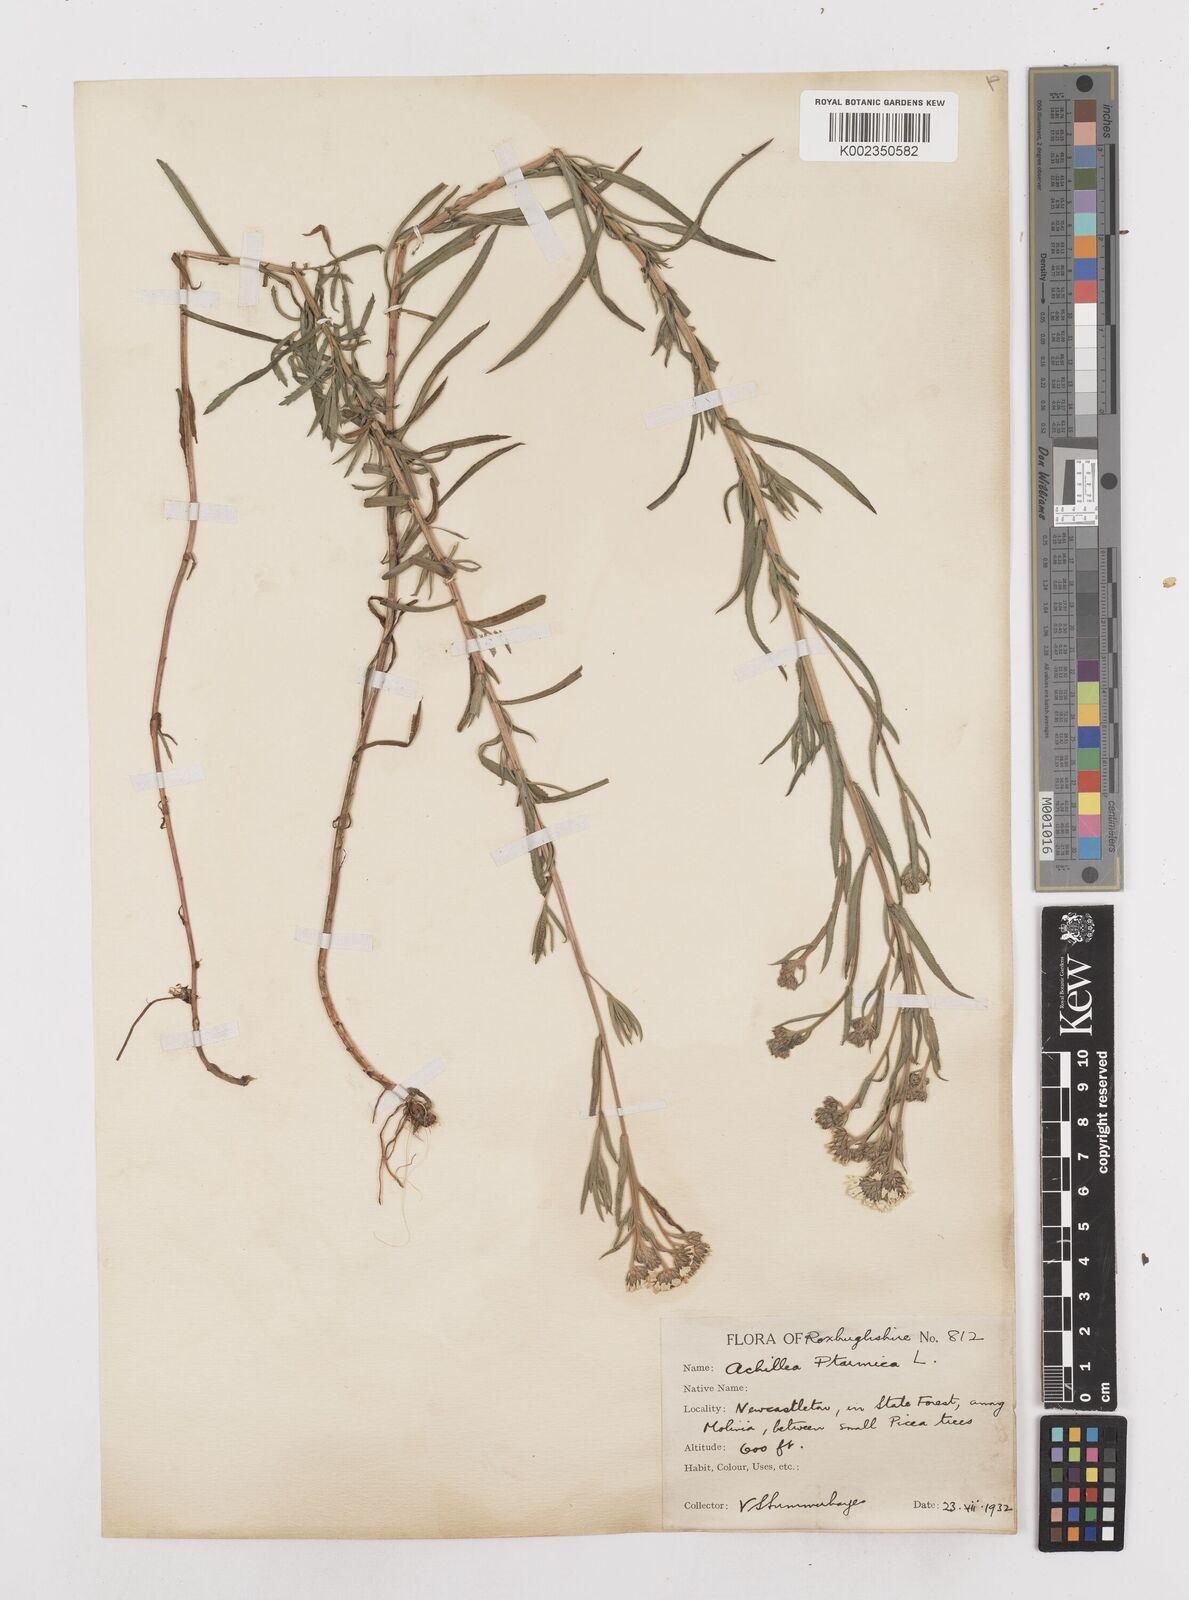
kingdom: Plantae
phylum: Tracheophyta
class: Magnoliopsida
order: Asterales
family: Asteraceae
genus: Achillea
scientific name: Achillea ptarmica
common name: Sneezeweed
